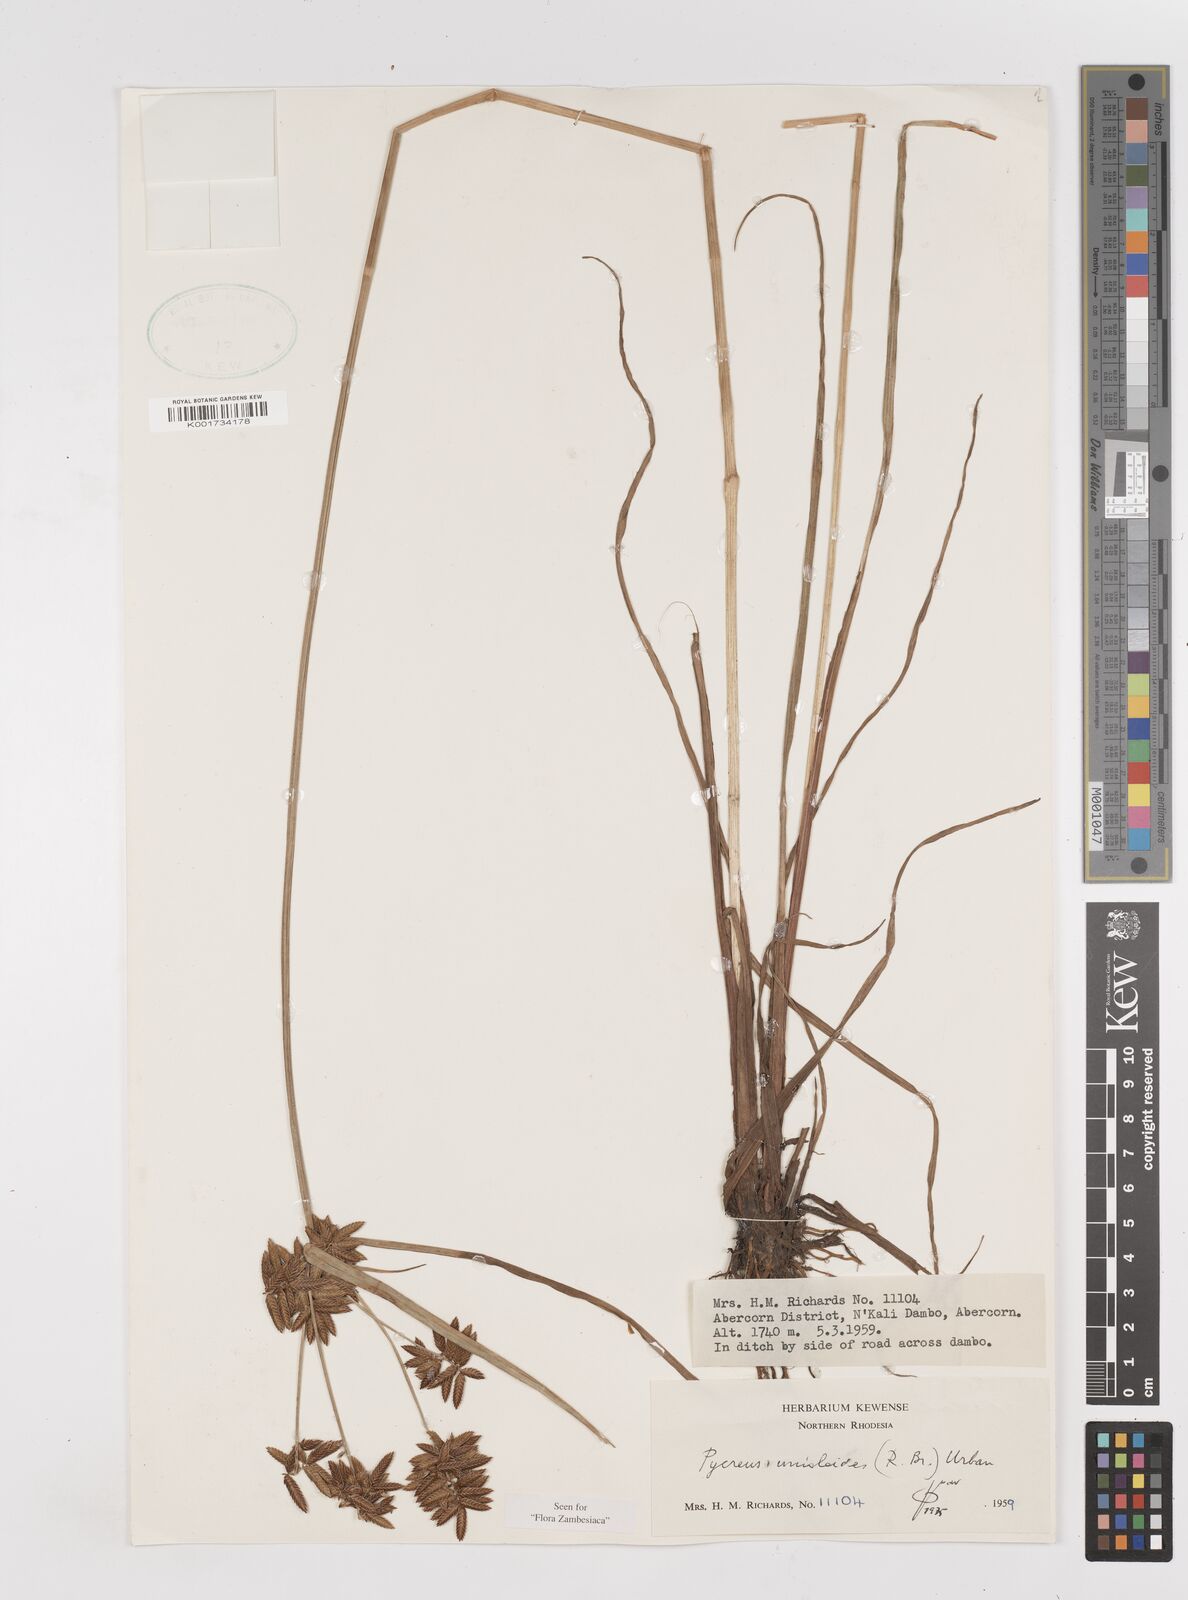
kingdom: Plantae
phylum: Tracheophyta
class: Liliopsida
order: Poales
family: Cyperaceae
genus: Cyperus
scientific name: Cyperus unioloides
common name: Uniola flatsedge
